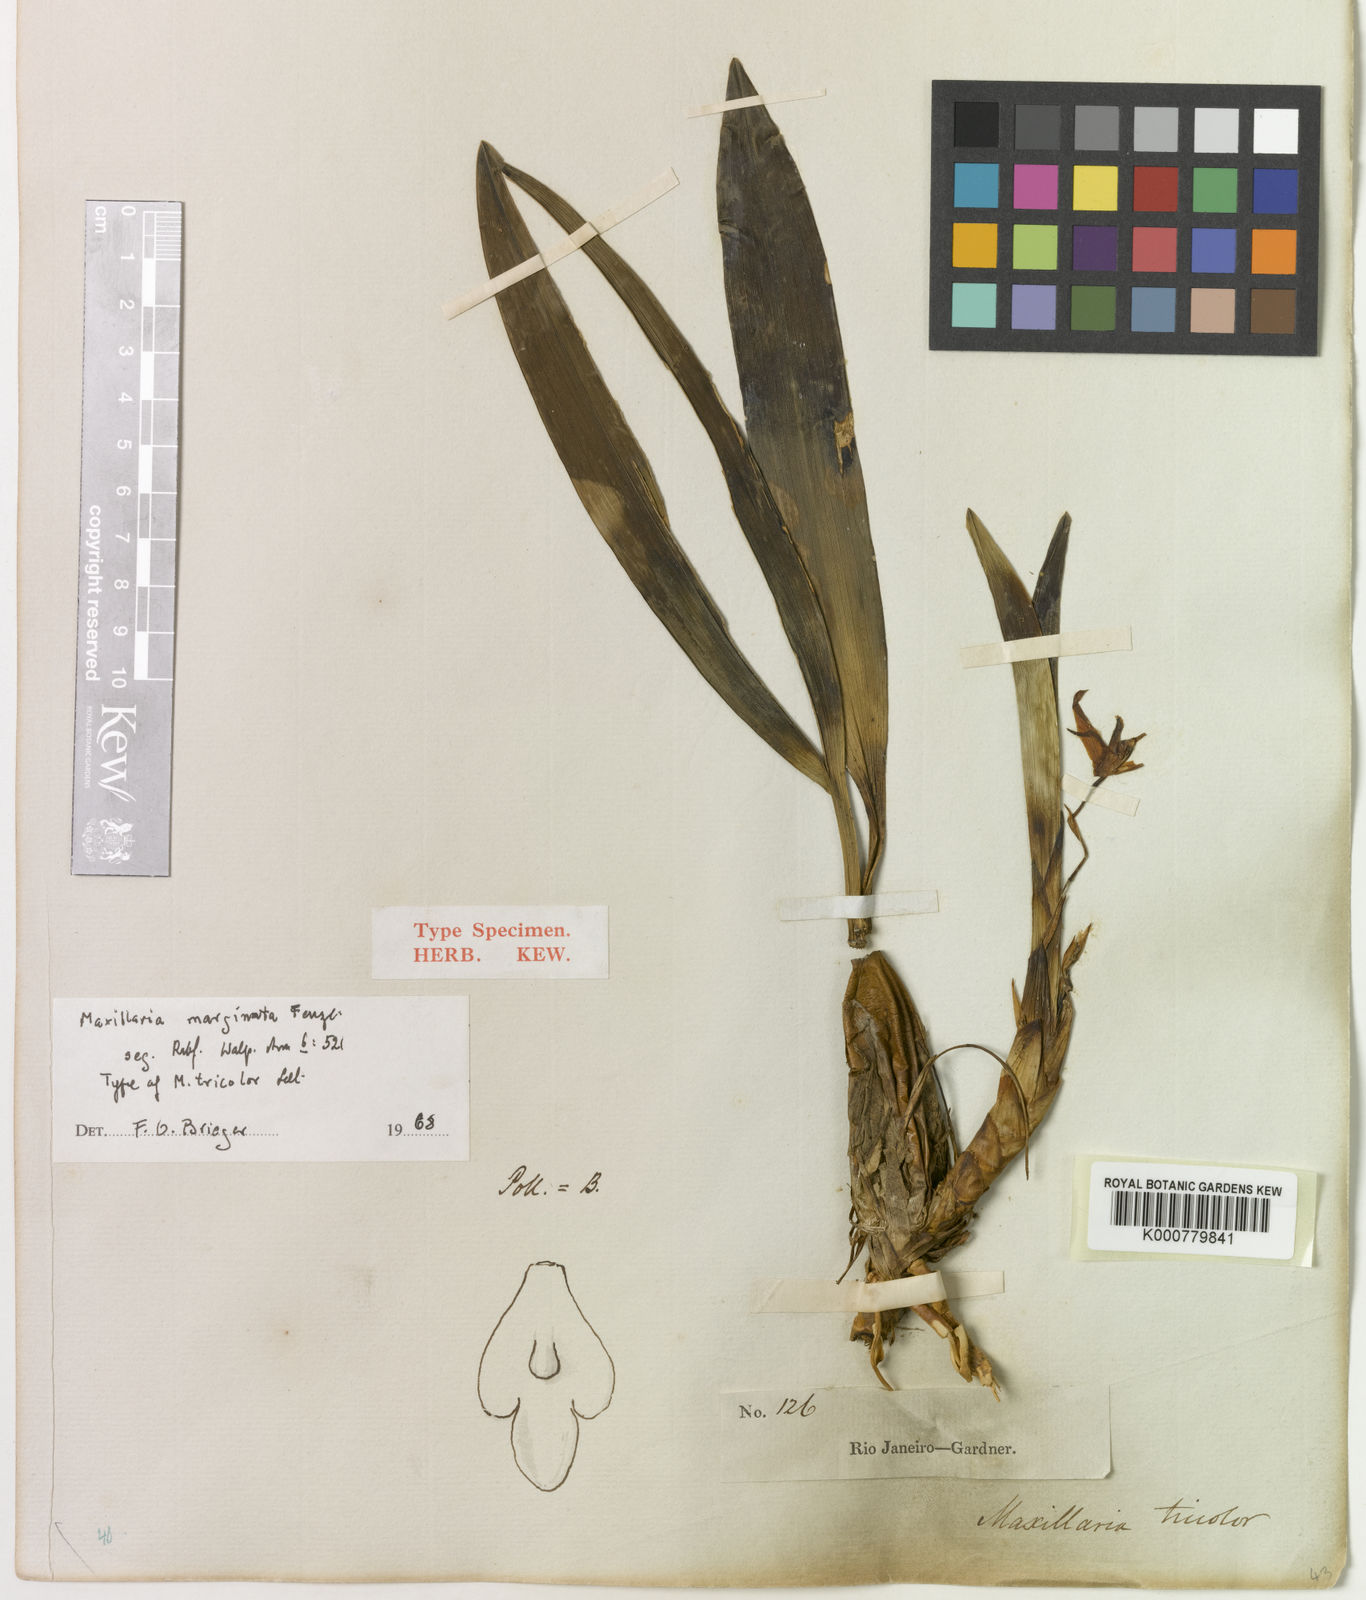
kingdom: Plantae
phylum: Tracheophyta
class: Liliopsida
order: Asparagales
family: Orchidaceae
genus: Maxillaria
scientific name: Maxillaria marginata
